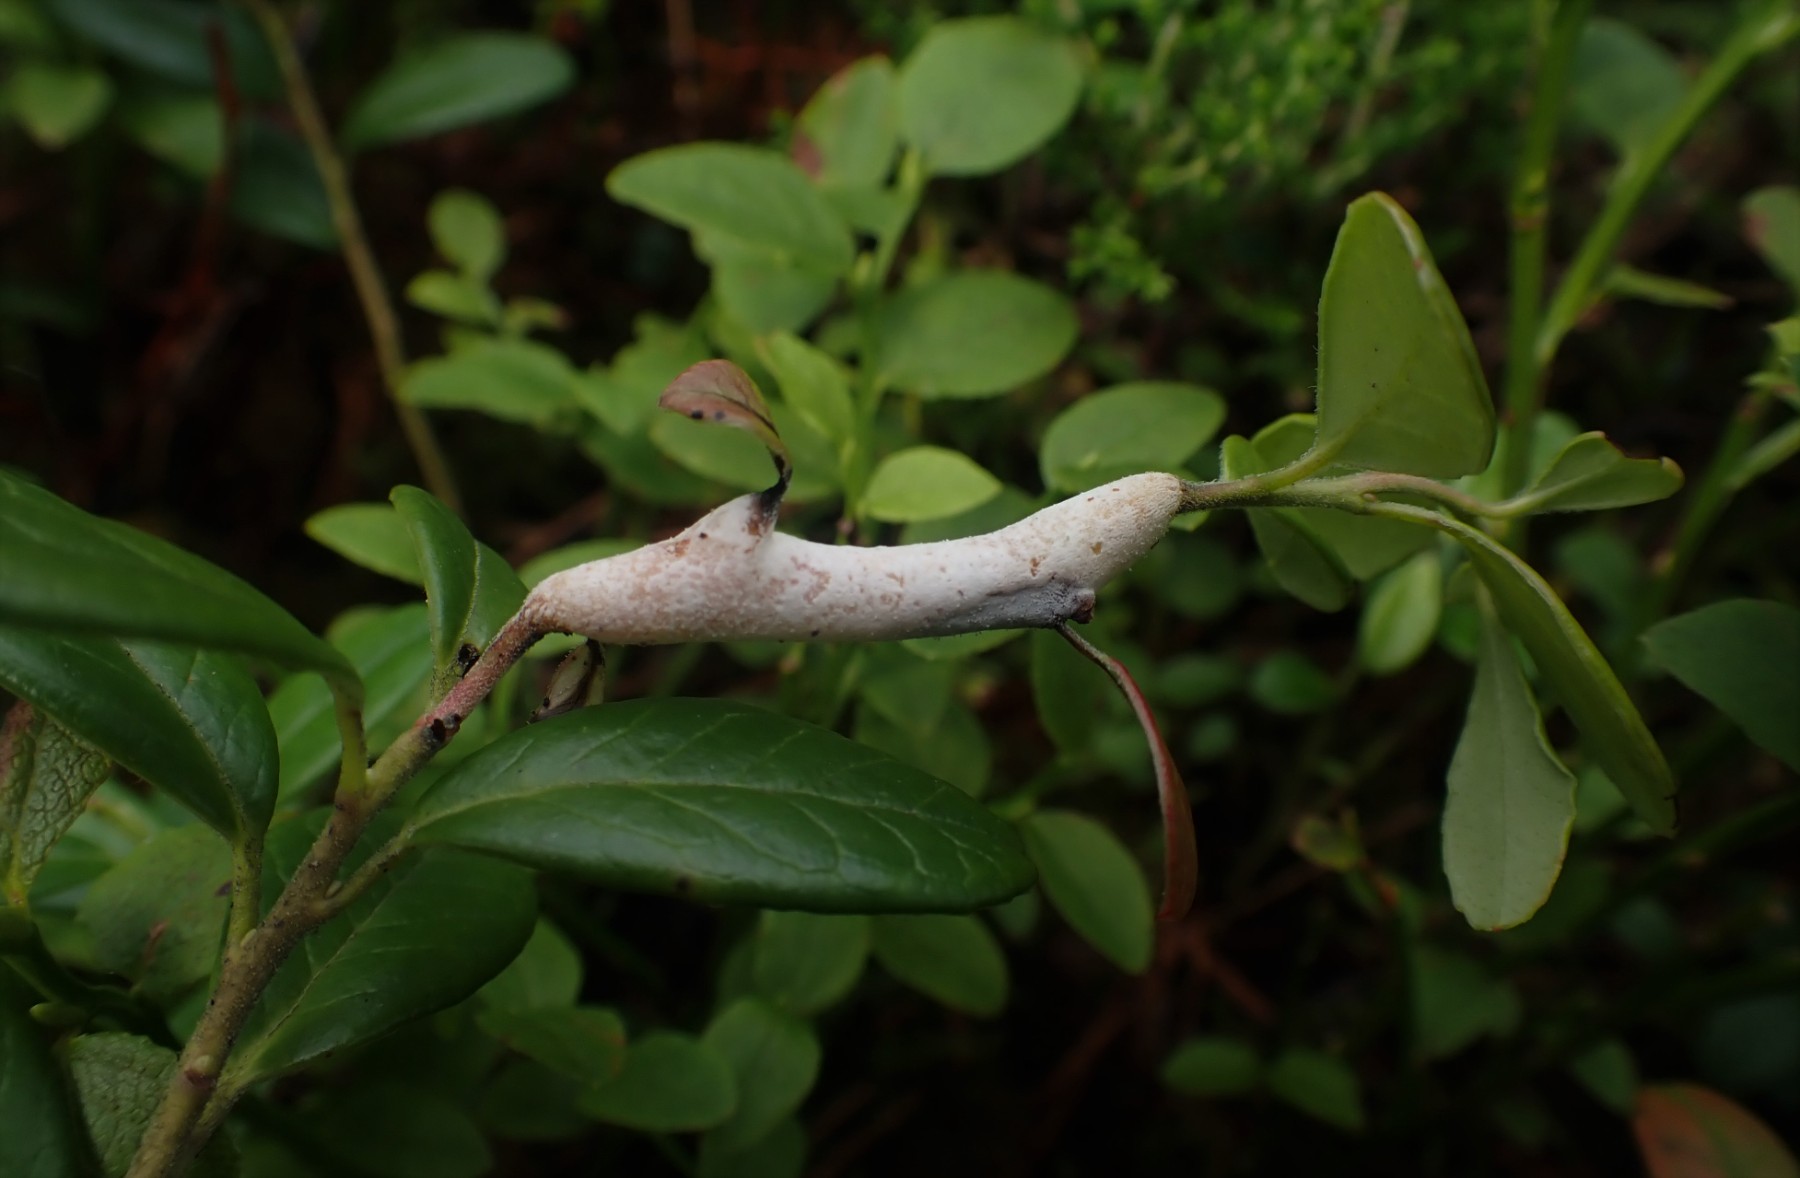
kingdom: Fungi
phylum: Basidiomycota
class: Exobasidiomycetes
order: Exobasidiales
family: Exobasidiaceae
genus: Exobasidium
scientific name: Exobasidium vaccinii
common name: tyttebærblad-bøllesvamp
